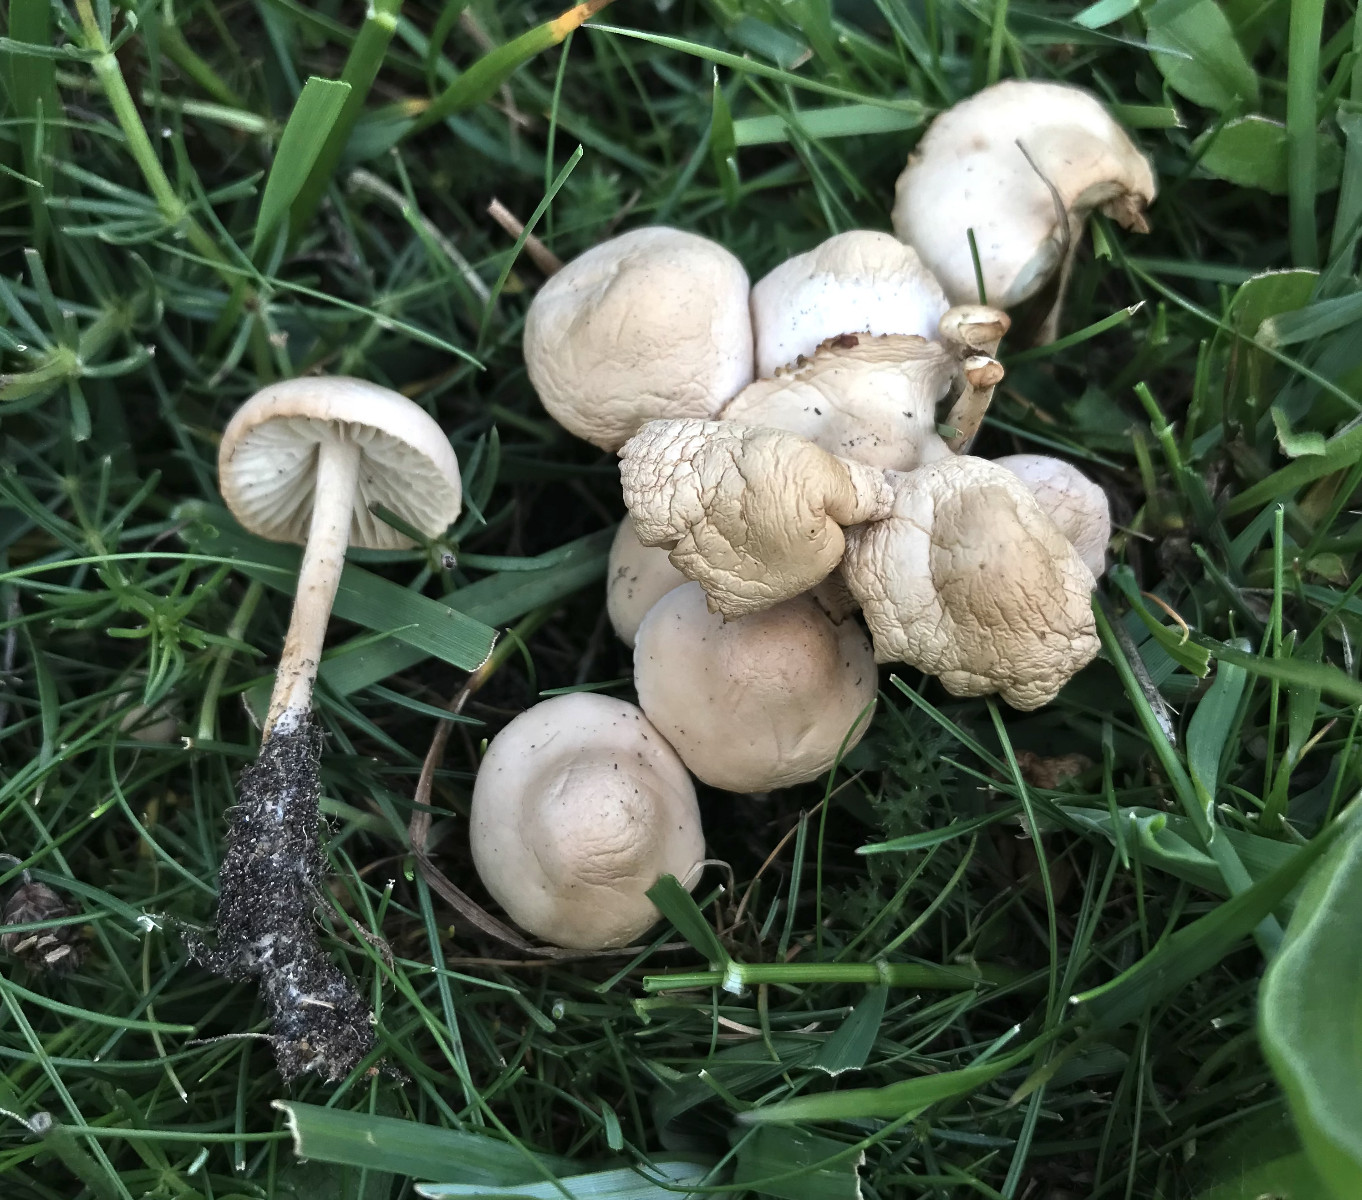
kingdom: Fungi
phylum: Basidiomycota
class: Agaricomycetes
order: Agaricales
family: Marasmiaceae
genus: Marasmius
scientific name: Marasmius oreades
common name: elledans-bruskhat
